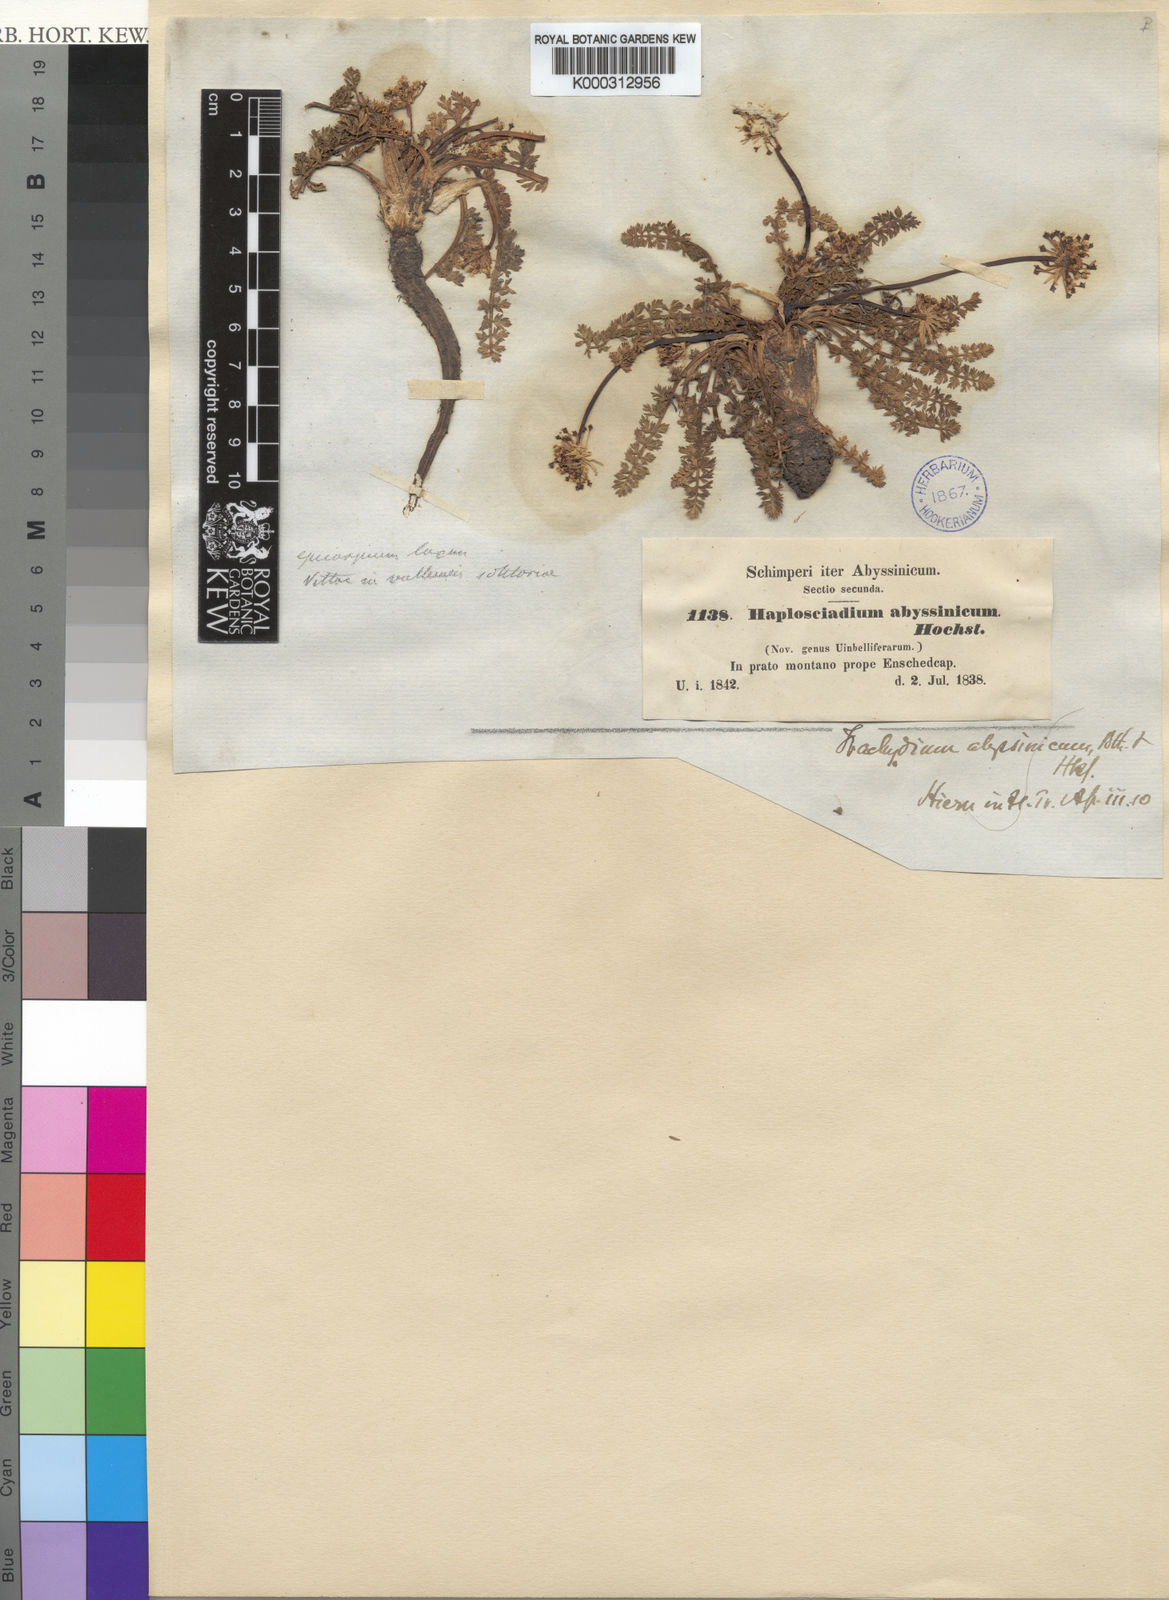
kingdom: Plantae
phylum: Tracheophyta
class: Magnoliopsida
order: Apiales
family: Apiaceae
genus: Haplosciadium
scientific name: Haplosciadium abyssinicum
